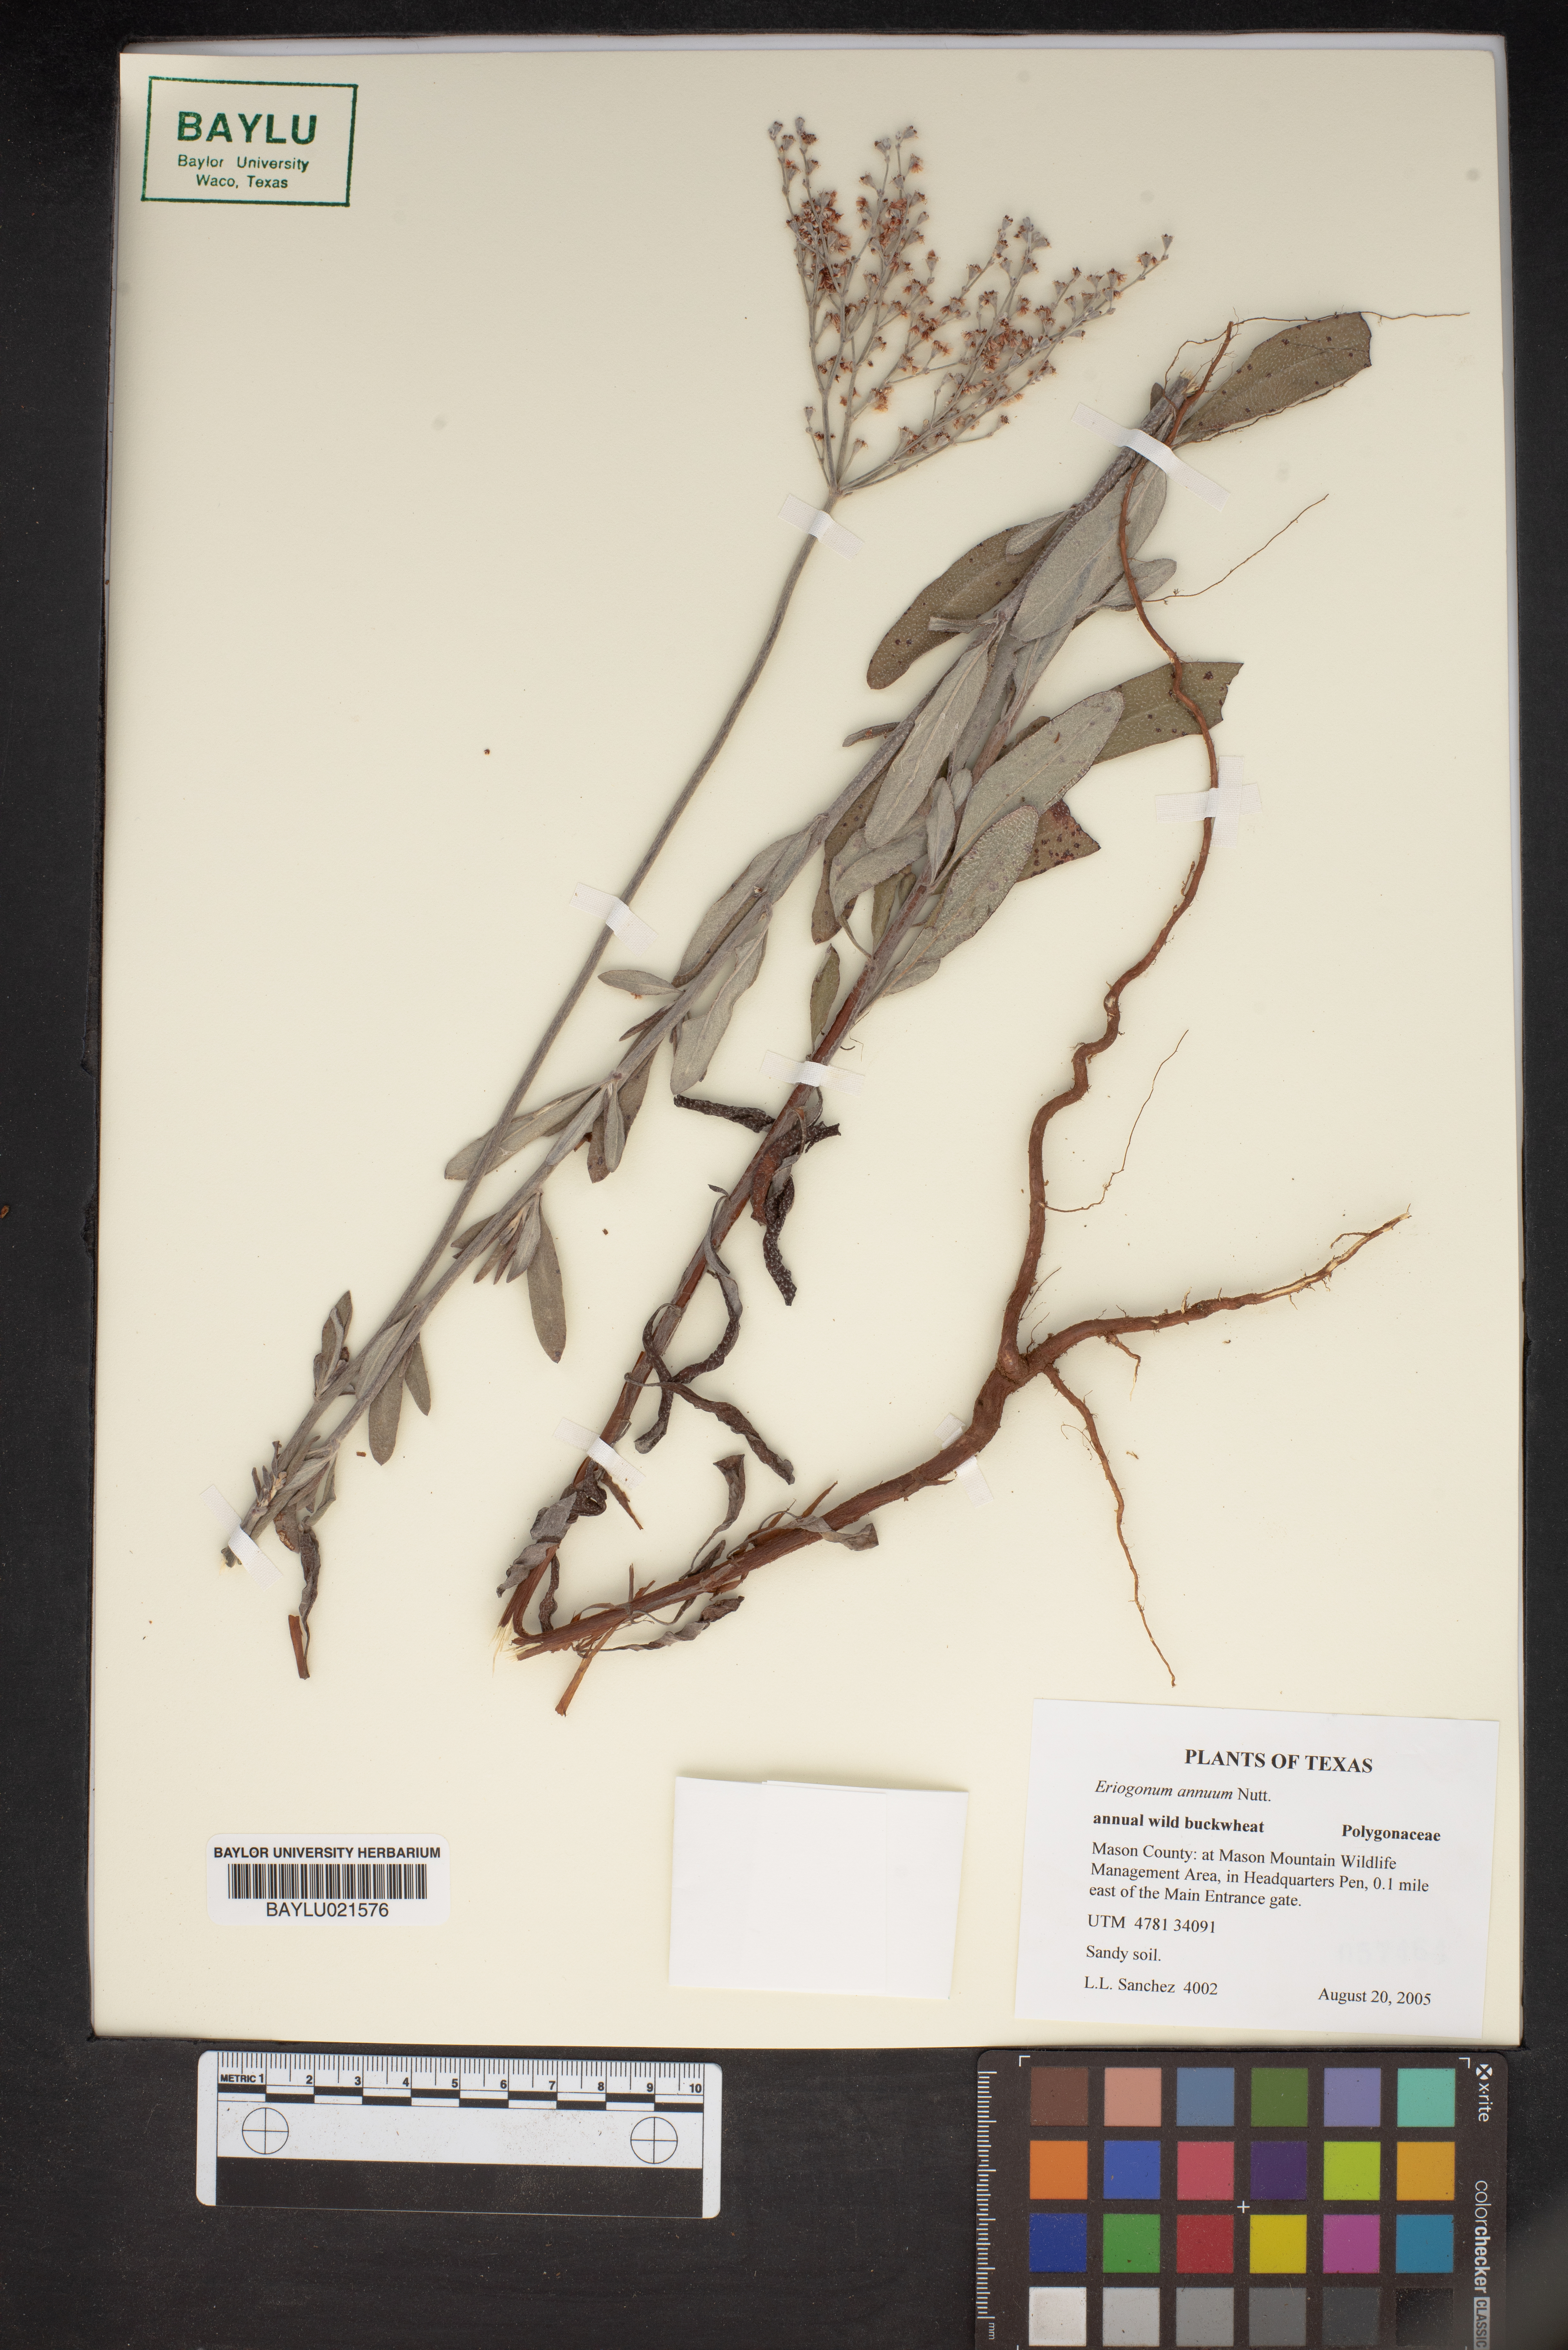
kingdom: Plantae
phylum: Tracheophyta
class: Magnoliopsida
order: Caryophyllales
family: Polygonaceae
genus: Eriogonum
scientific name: Eriogonum annuum
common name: Annual wild buckwheat
